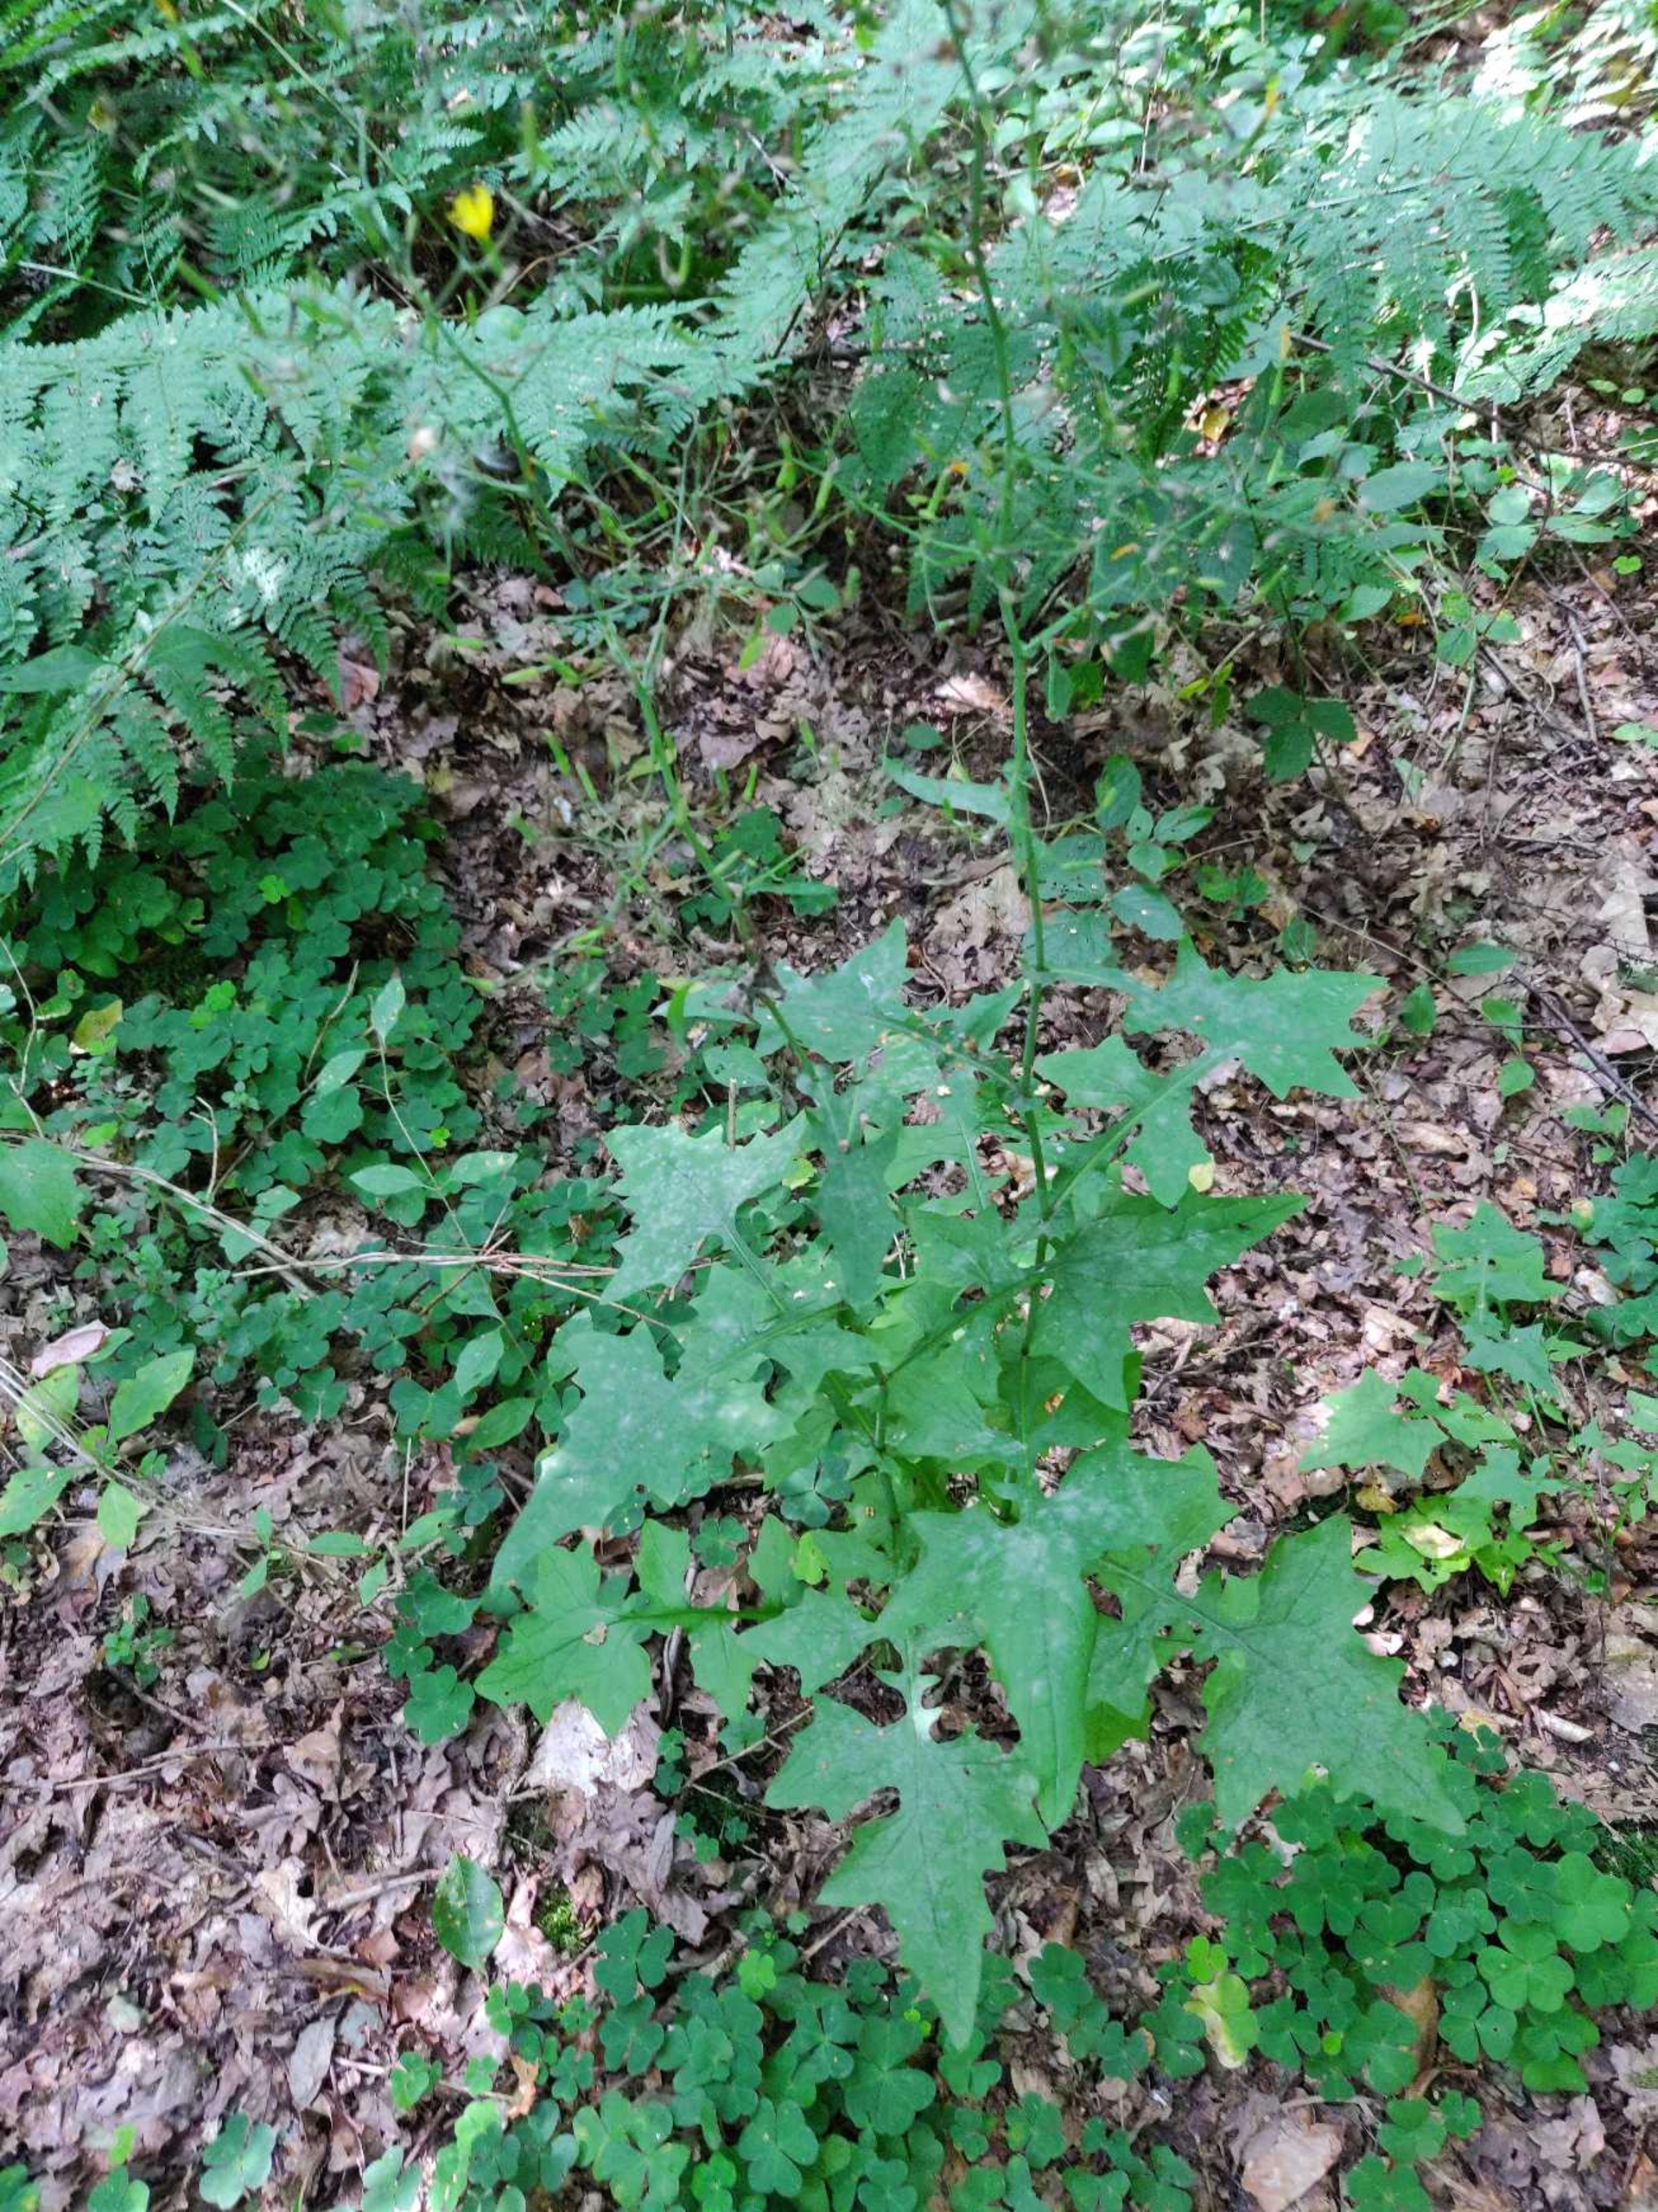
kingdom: Plantae
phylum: Tracheophyta
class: Magnoliopsida
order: Asterales
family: Asteraceae
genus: Mycelis
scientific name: Mycelis muralis
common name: Skov-salat
